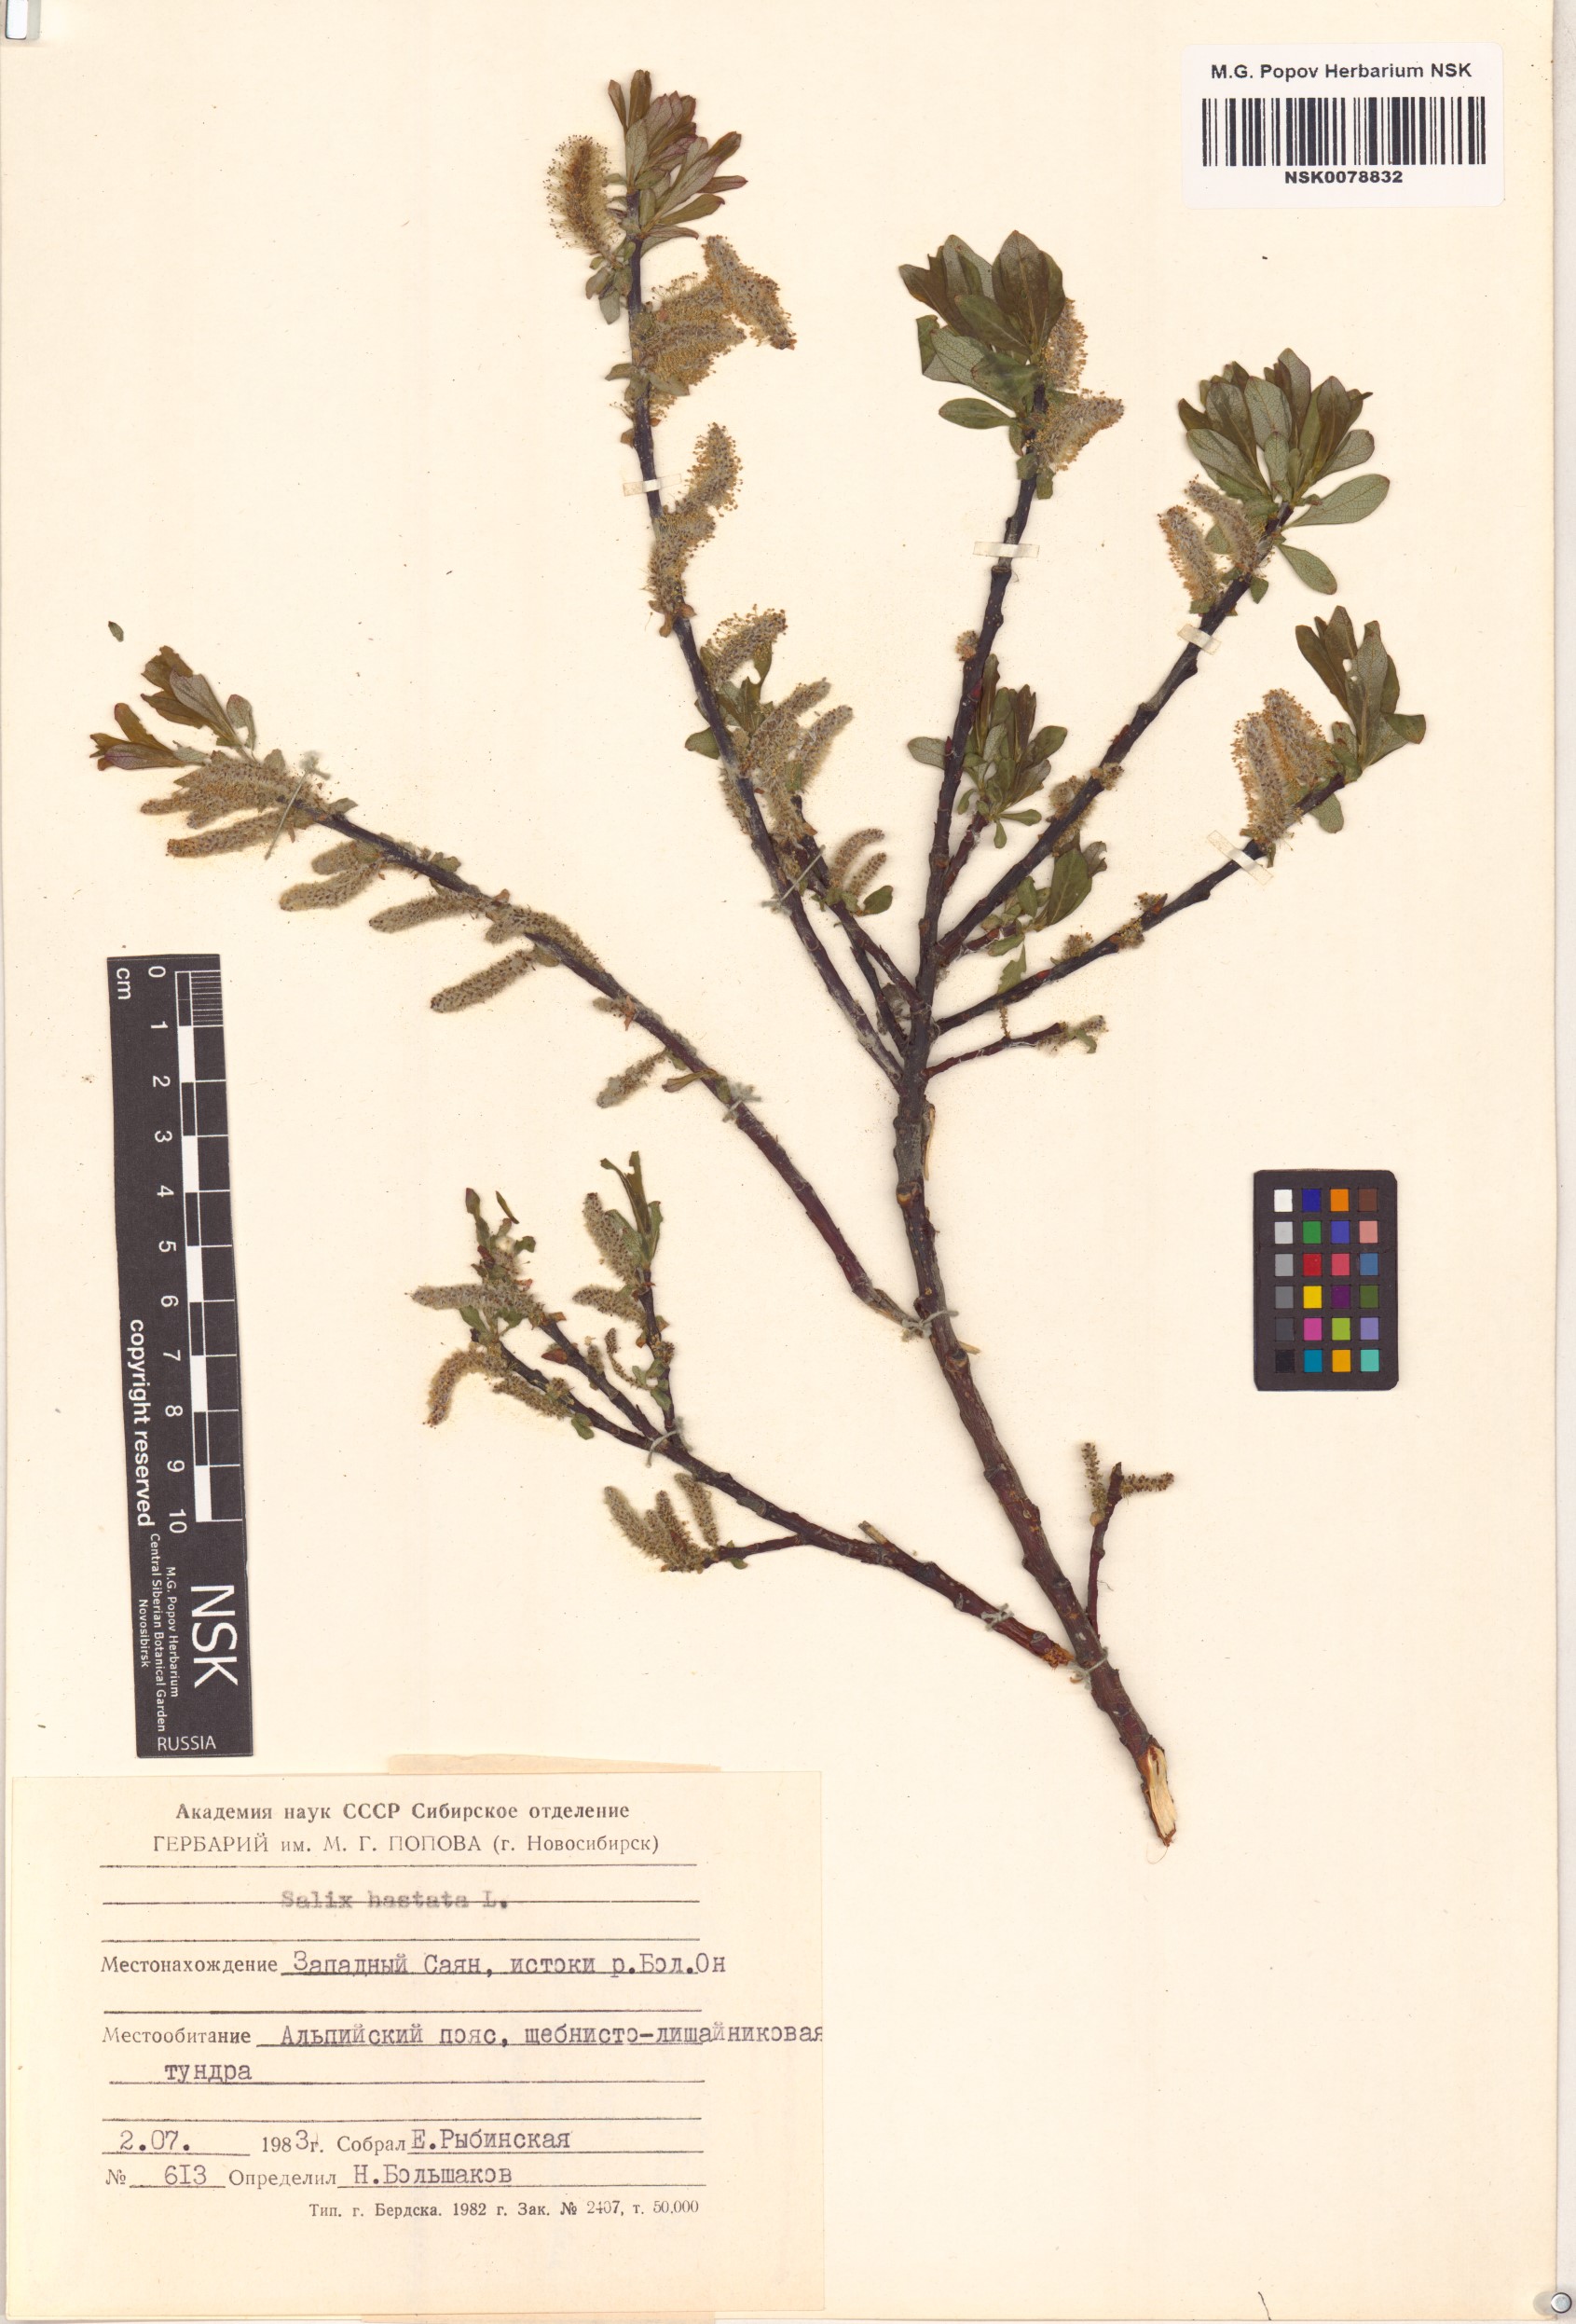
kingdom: Plantae
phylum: Tracheophyta
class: Magnoliopsida
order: Malpighiales
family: Salicaceae
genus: Salix
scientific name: Salix hastata
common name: Halberd willow
